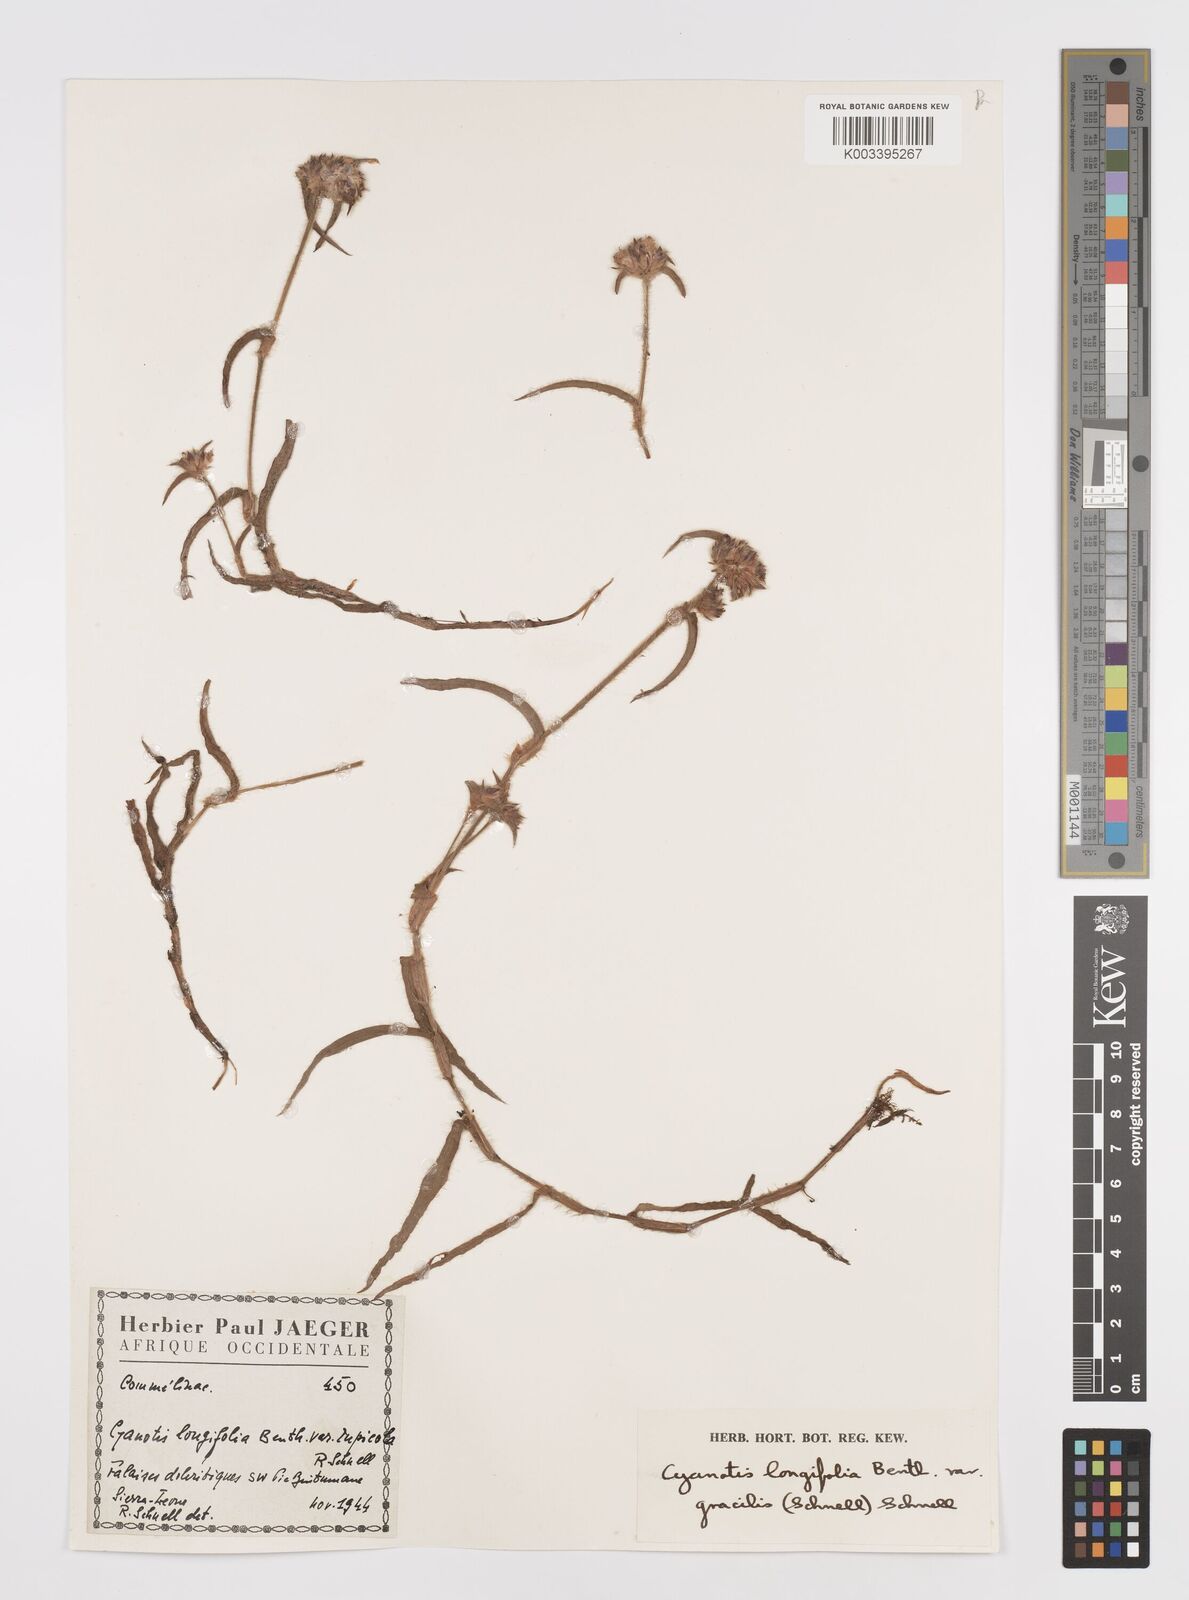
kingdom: Plantae
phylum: Tracheophyta
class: Liliopsida
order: Commelinales
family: Commelinaceae
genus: Cyanotis
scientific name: Cyanotis longifolia
